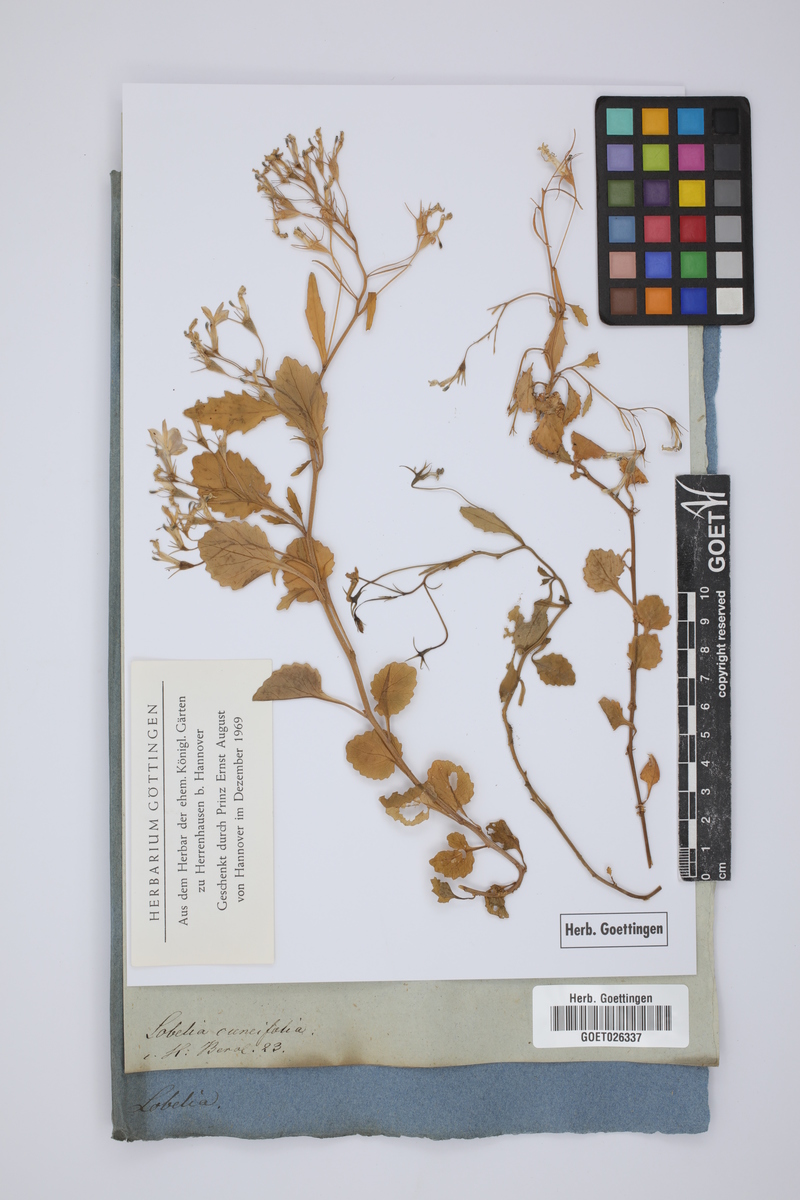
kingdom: Plantae
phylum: Tracheophyta
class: Magnoliopsida
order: Asterales
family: Campanulaceae
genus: Lobelia
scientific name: Lobelia cuneifolia
